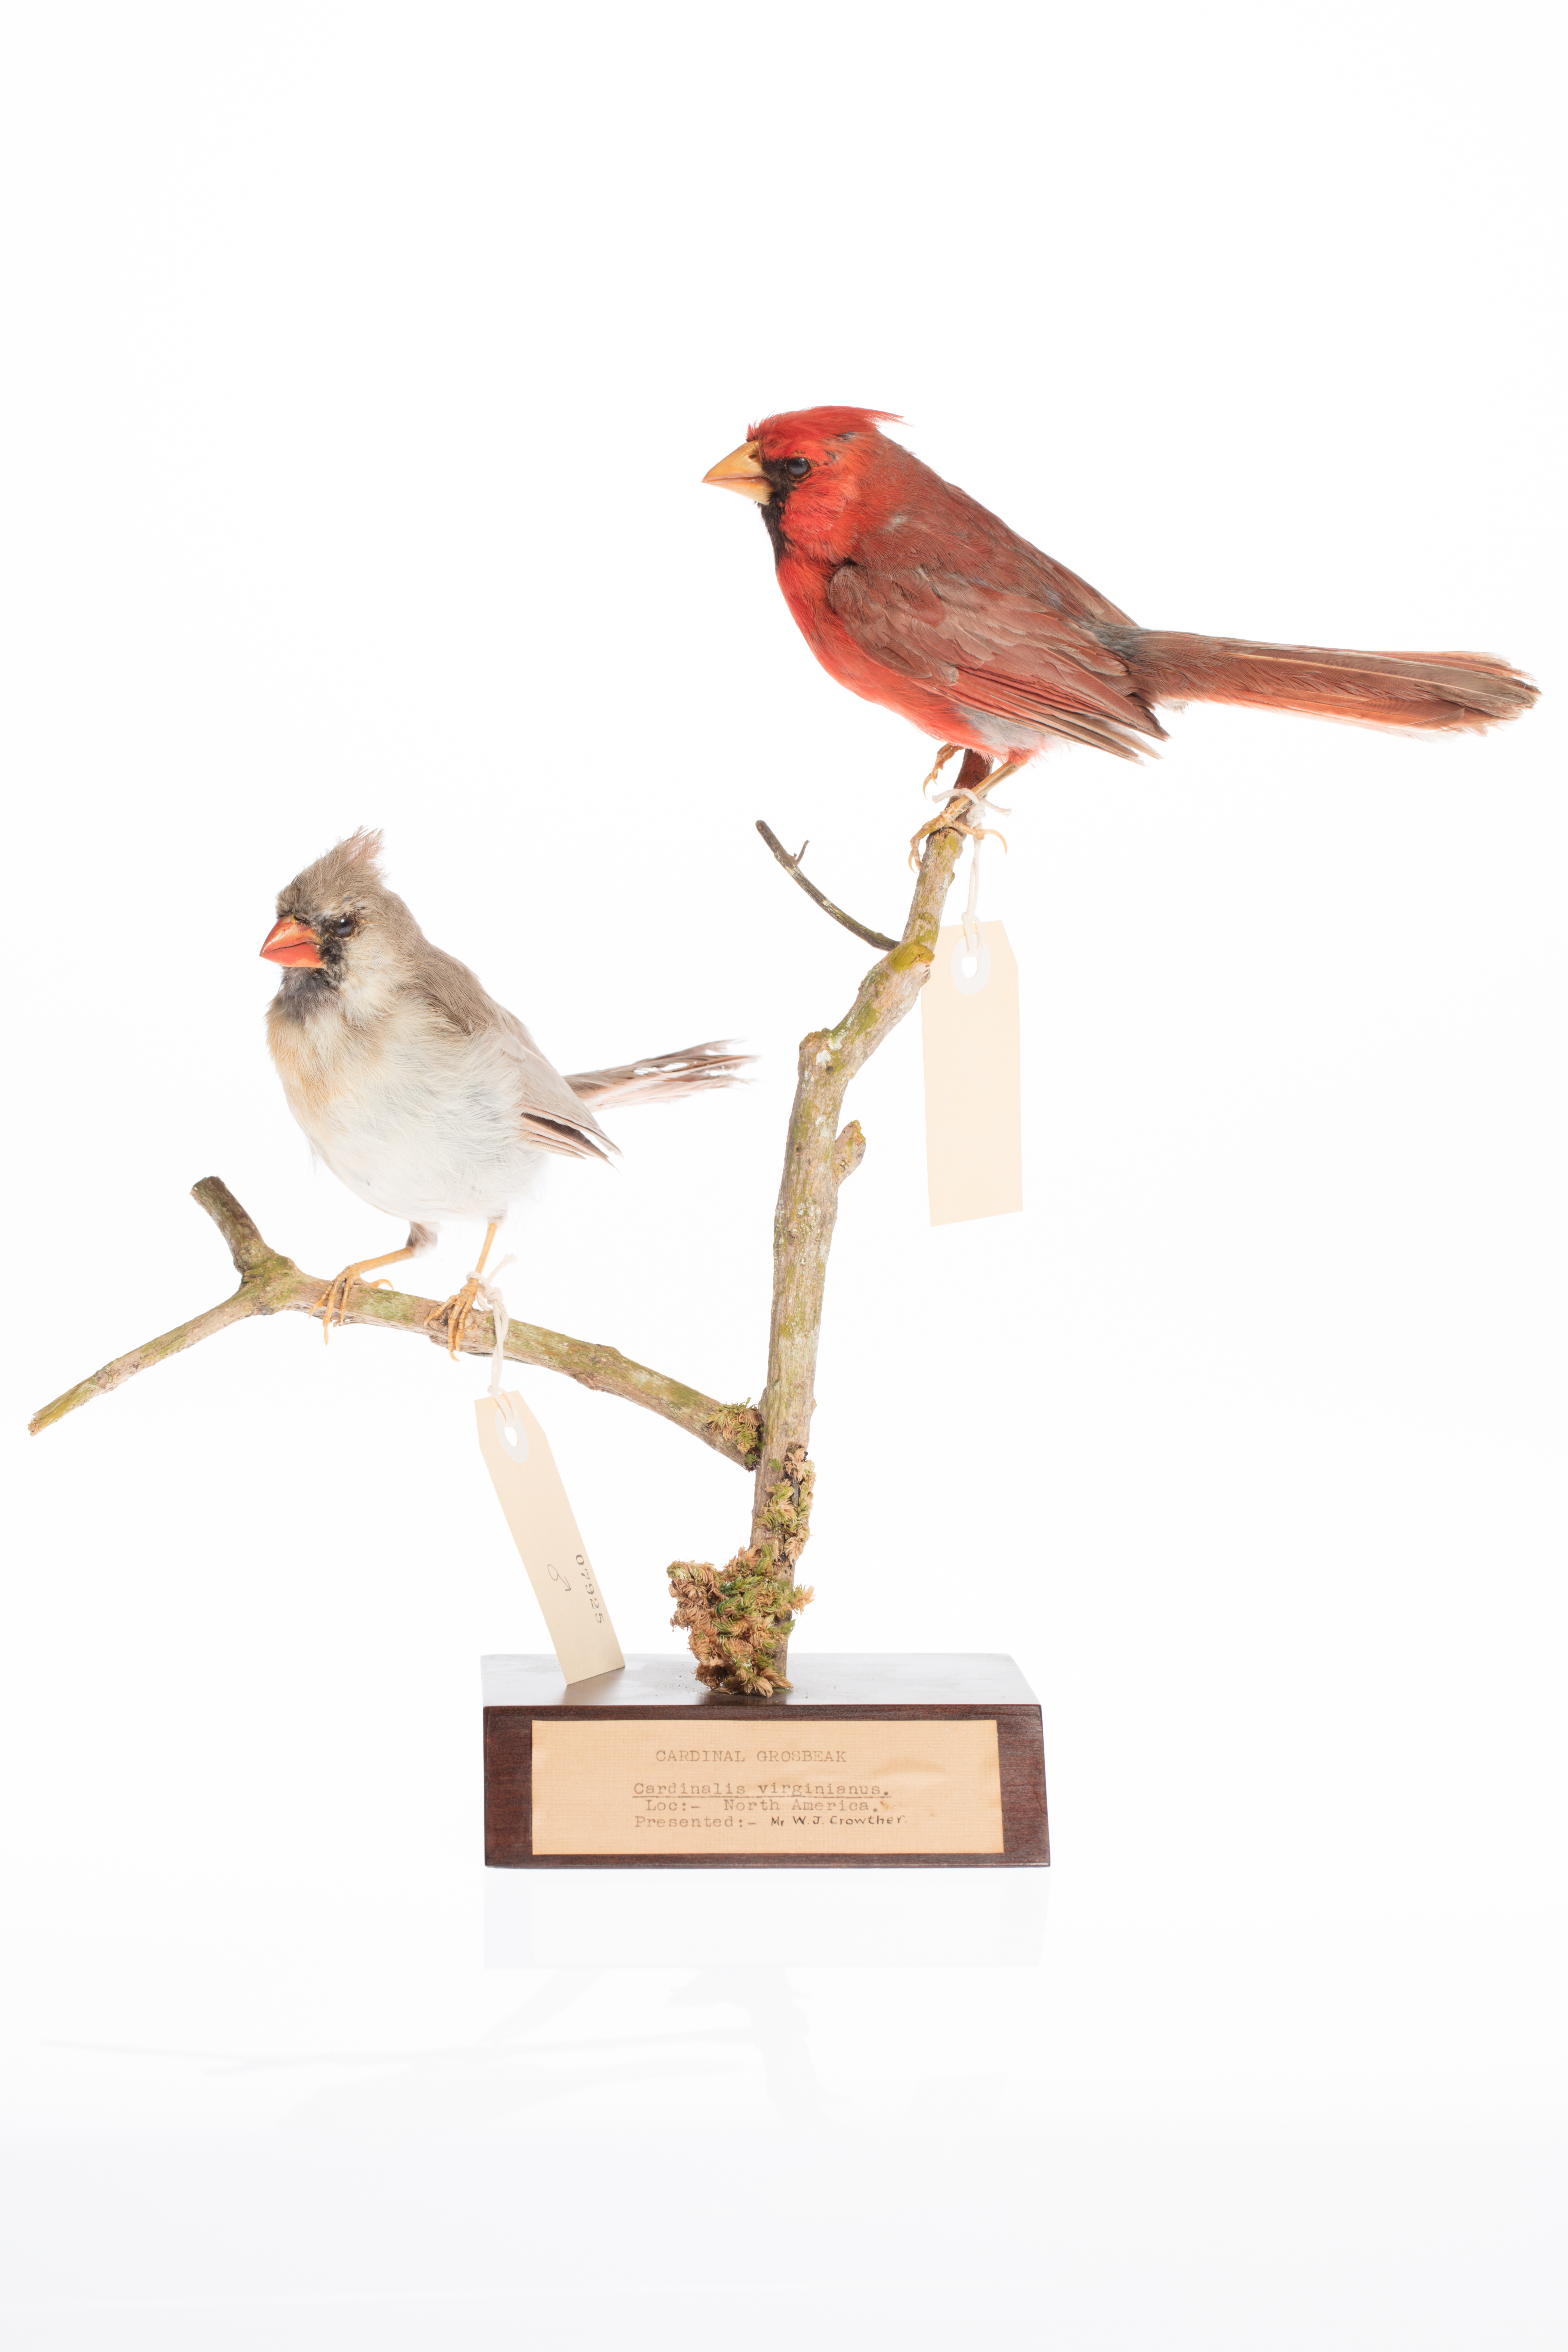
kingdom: Animalia
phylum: Chordata
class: Aves
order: Passeriformes
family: Cardinalidae
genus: Cardinalis
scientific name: Cardinalis cardinalis
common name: Northern cardinal
